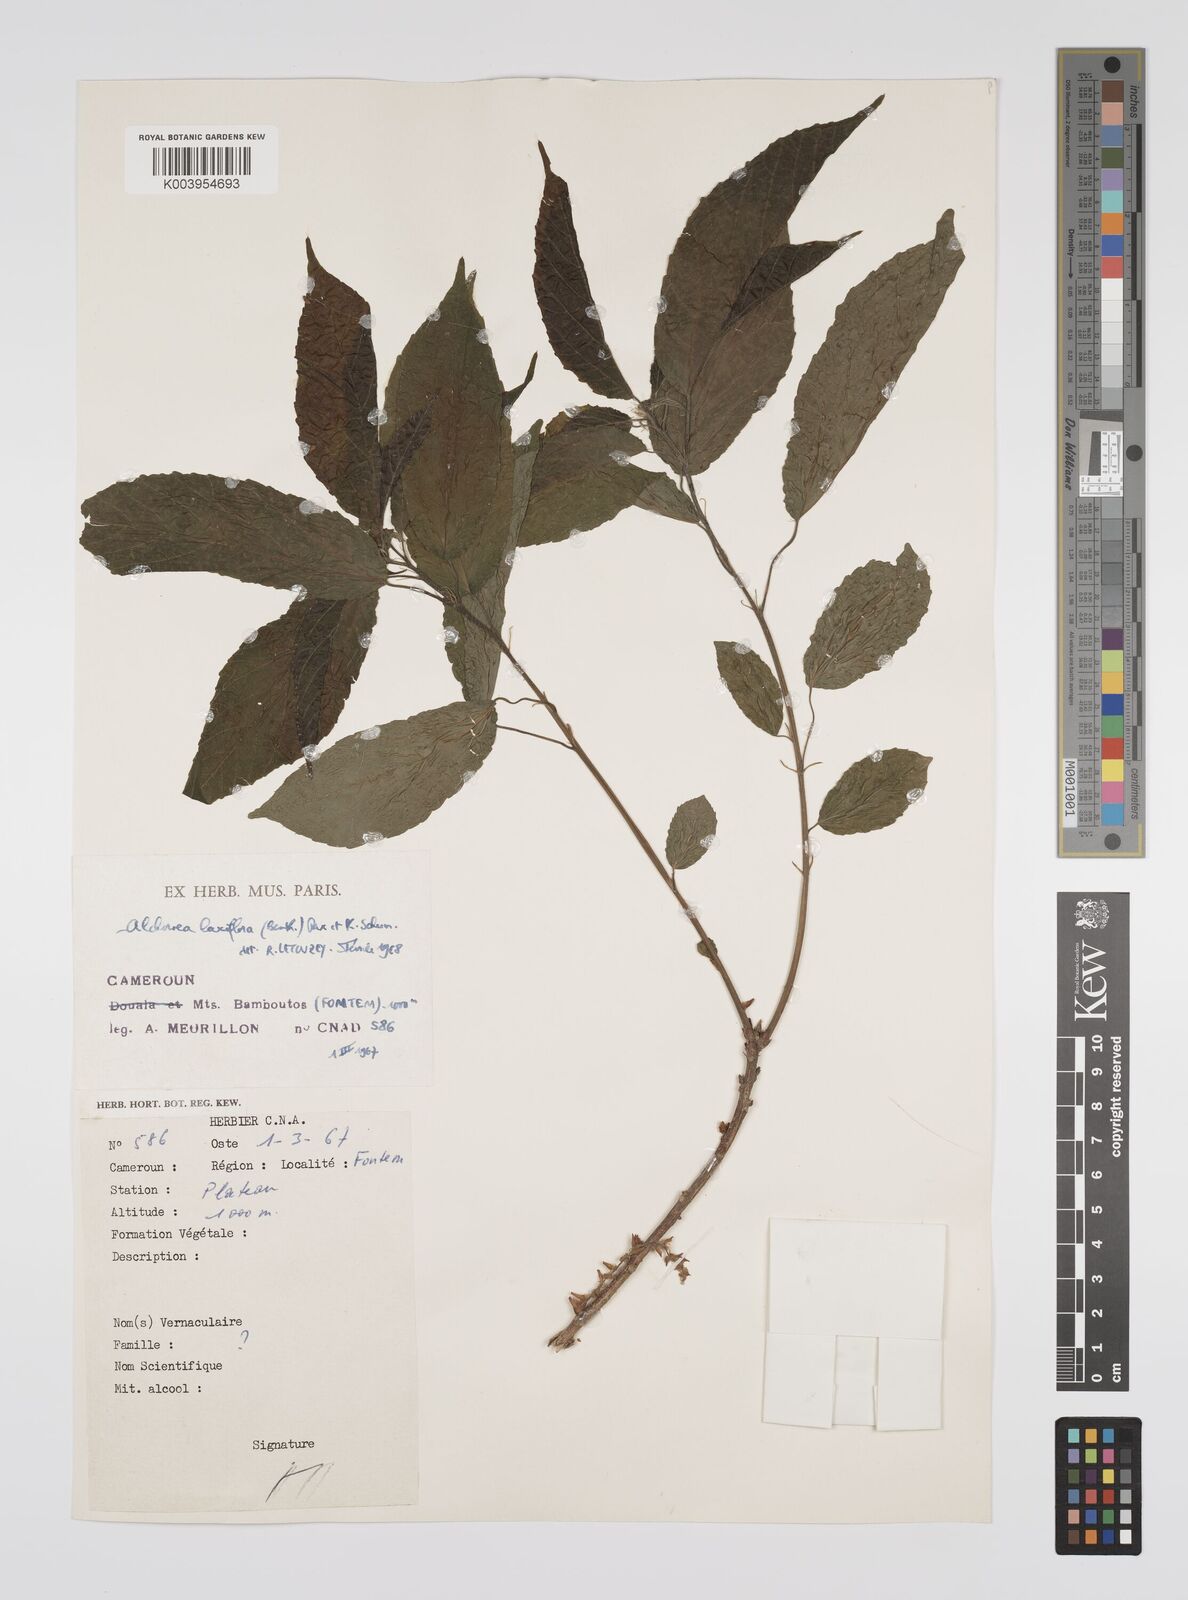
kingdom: Plantae
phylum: Tracheophyta
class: Magnoliopsida
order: Malpighiales
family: Euphorbiaceae
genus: Alchornea
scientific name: Alchornea laxiflora
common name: Lowveld bead-string
